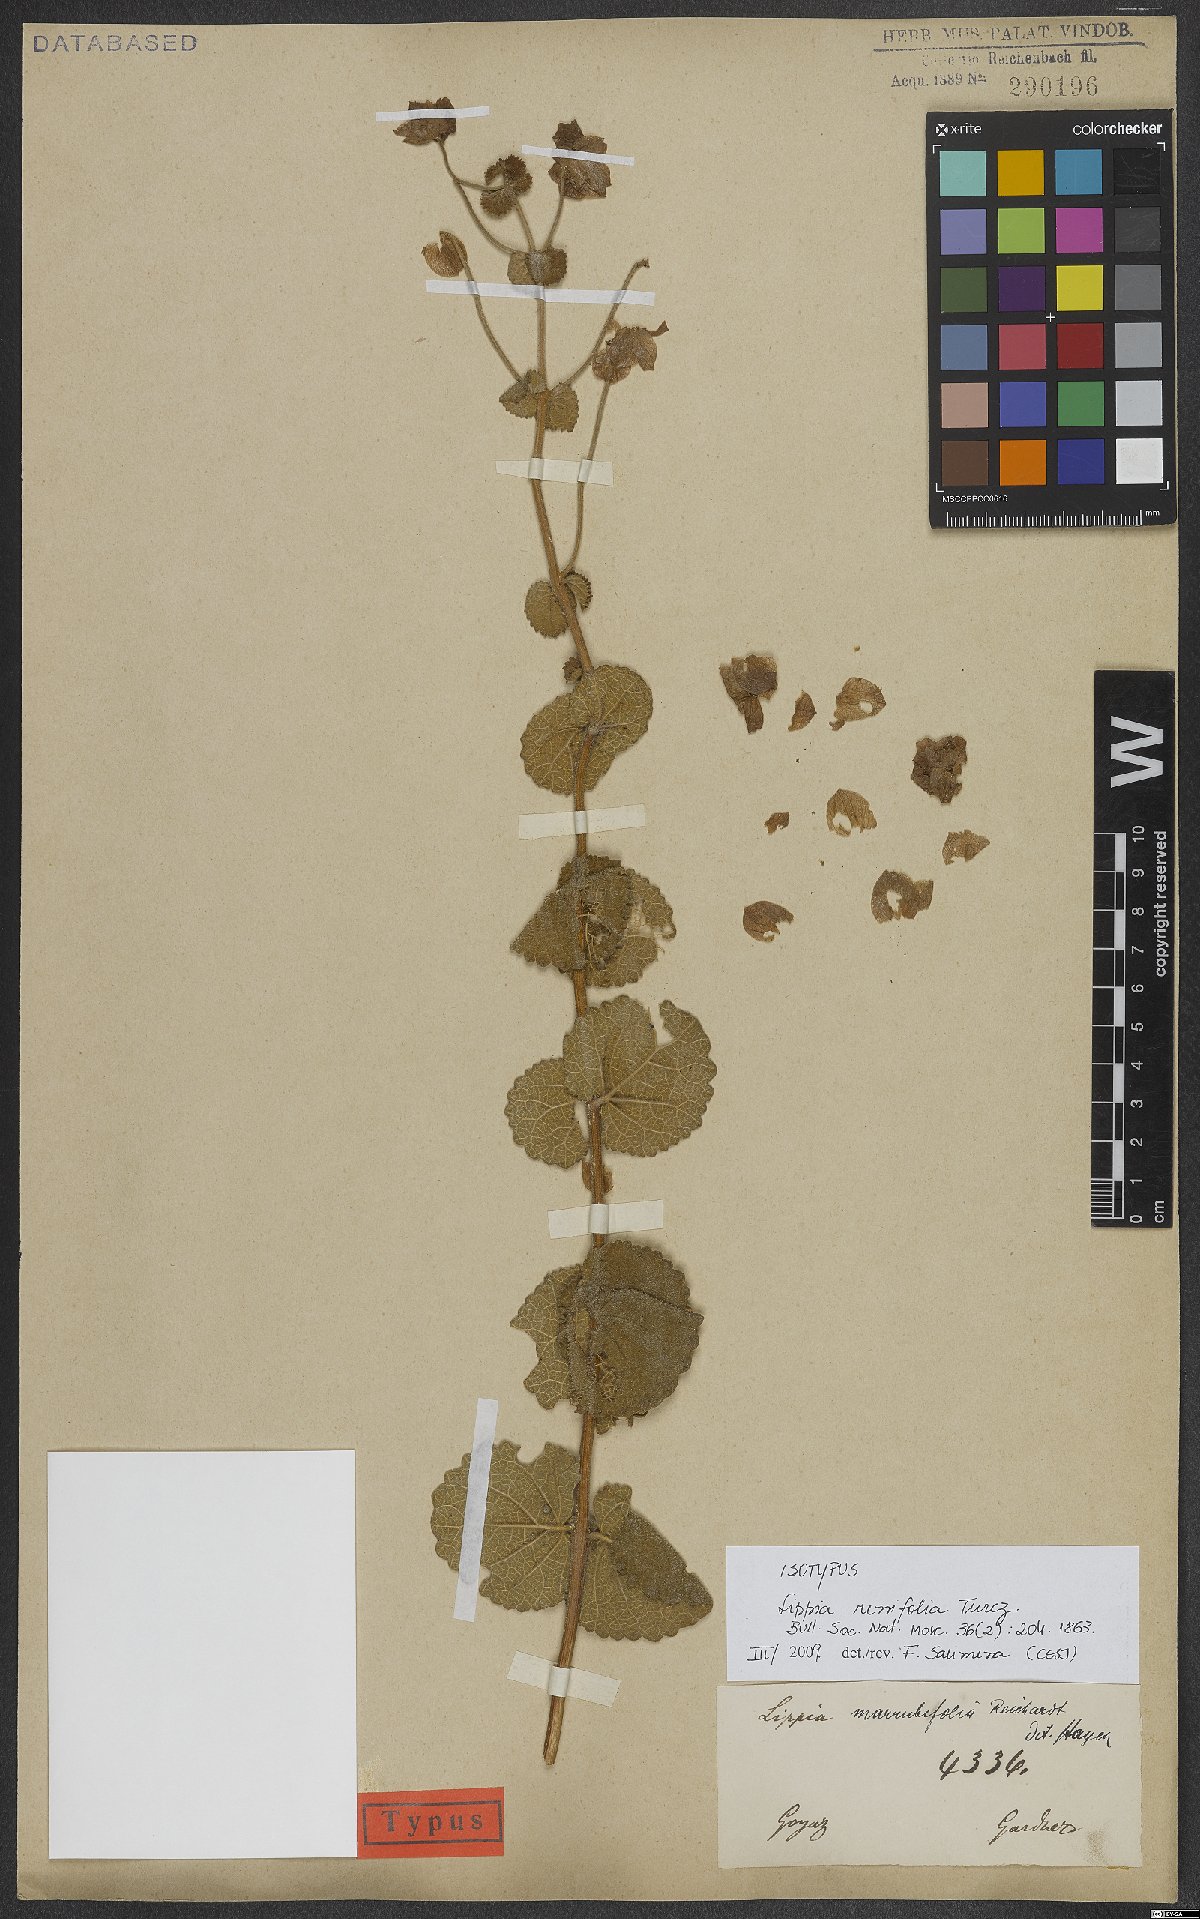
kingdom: Plantae
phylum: Tracheophyta
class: Magnoliopsida
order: Lamiales
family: Verbenaceae
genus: Lippia
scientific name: Lippia renifolia
